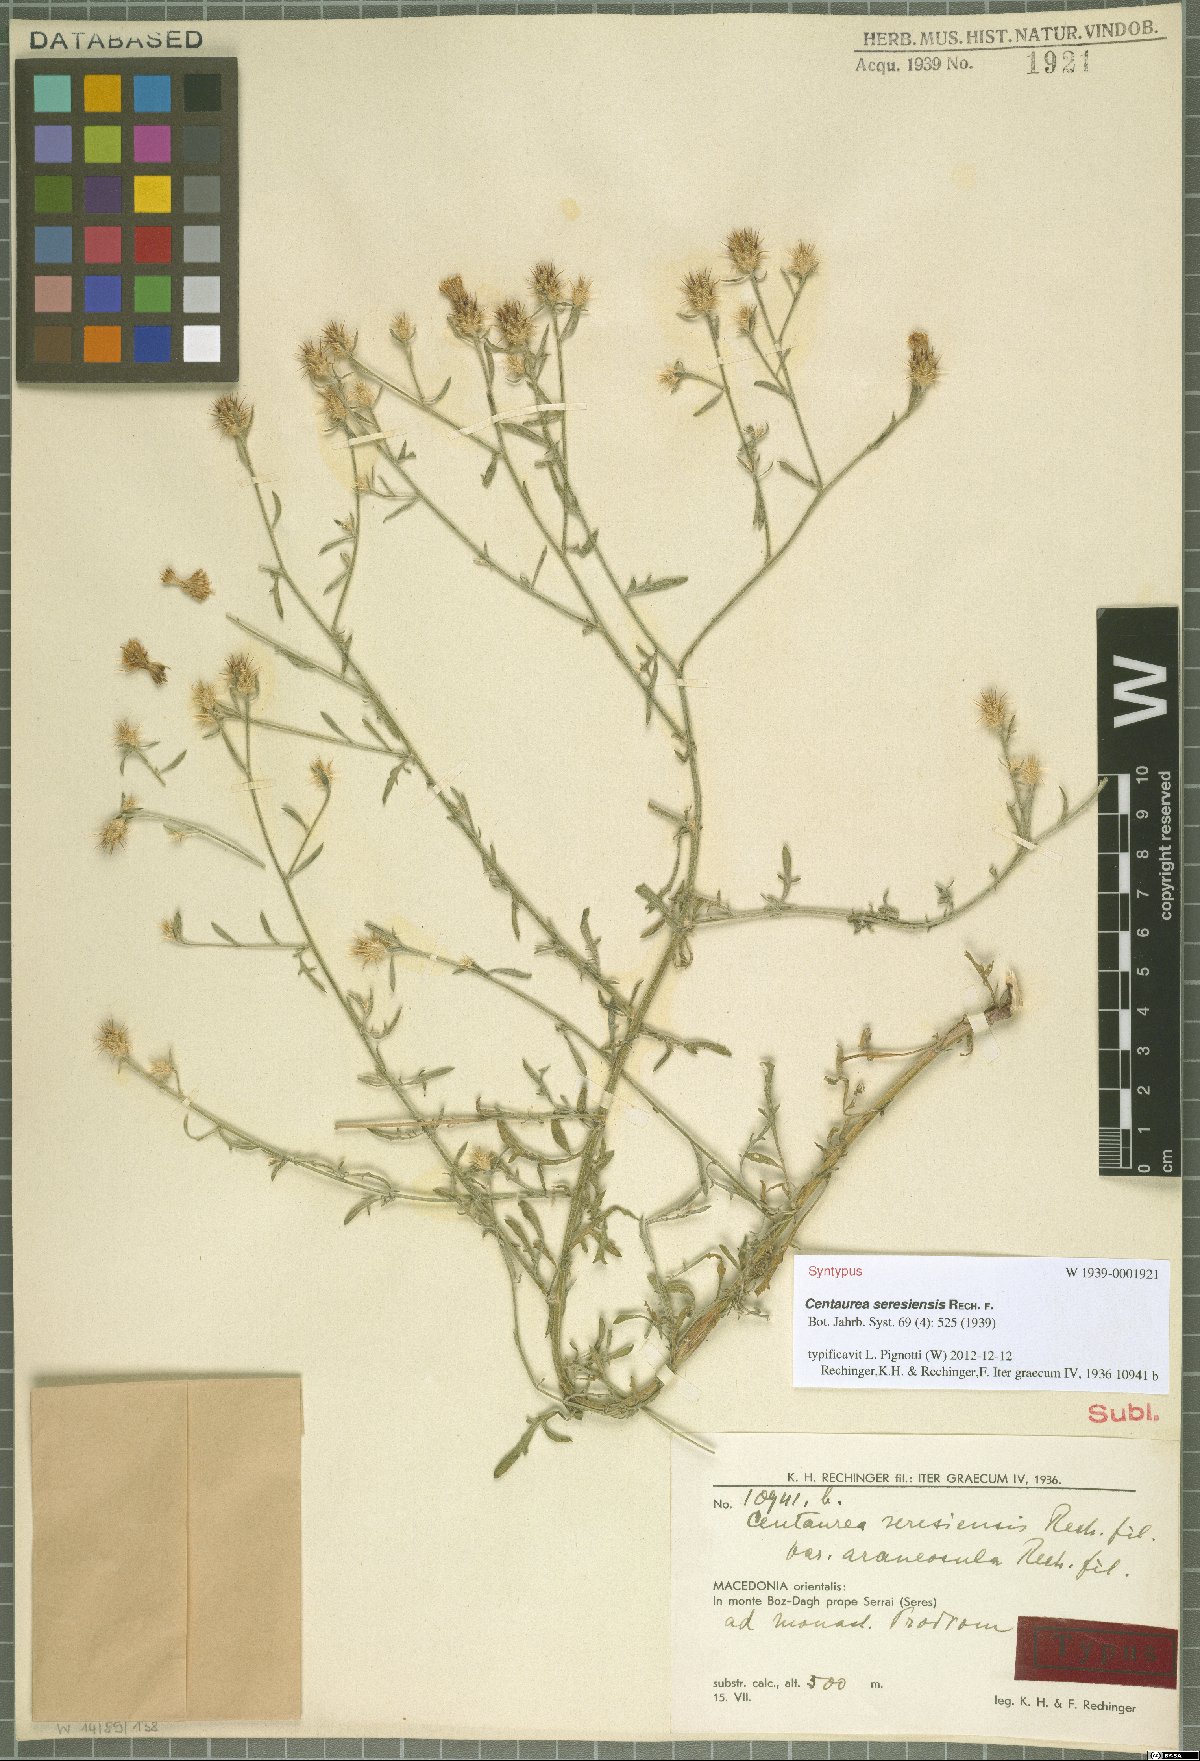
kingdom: Plantae
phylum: Tracheophyta
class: Magnoliopsida
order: Asterales
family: Asteraceae
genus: Centaurea
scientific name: Centaurea diffusa
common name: Diffuse knapweed
